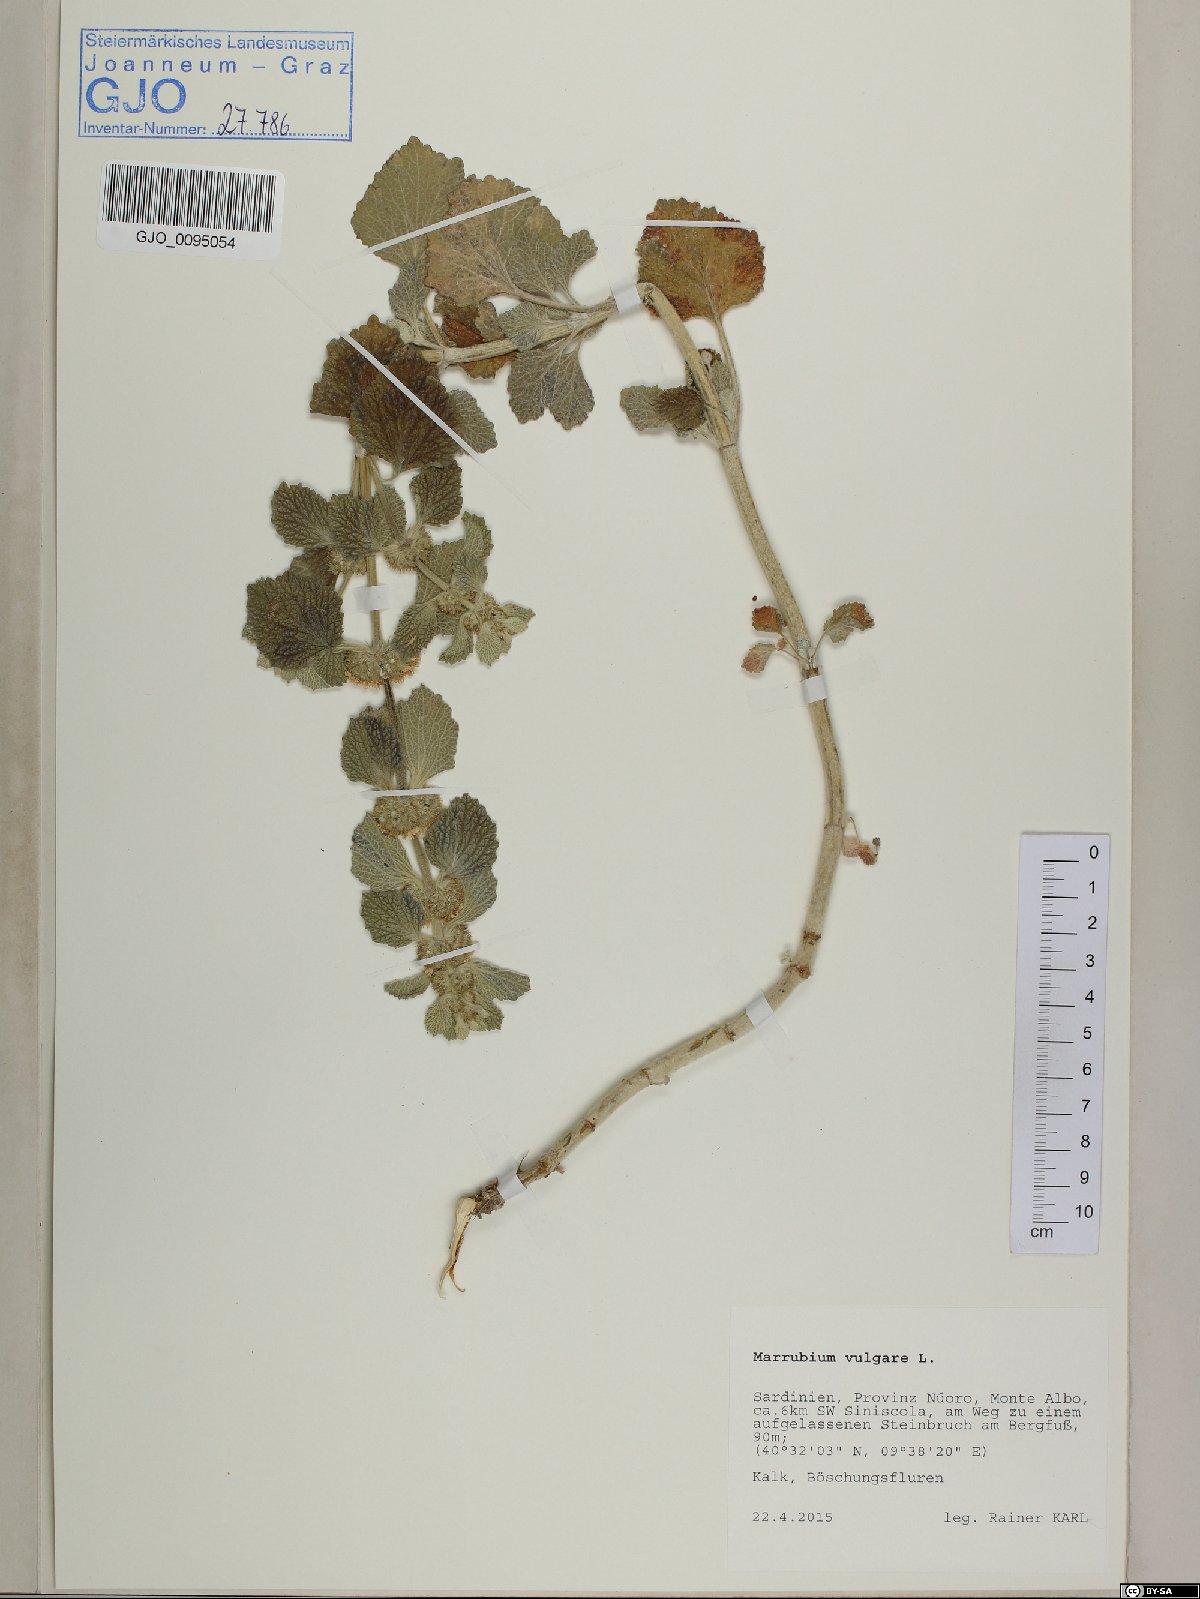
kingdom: Plantae
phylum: Tracheophyta
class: Magnoliopsida
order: Lamiales
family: Lamiaceae
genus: Marrubium
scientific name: Marrubium vulgare
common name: Horehound
